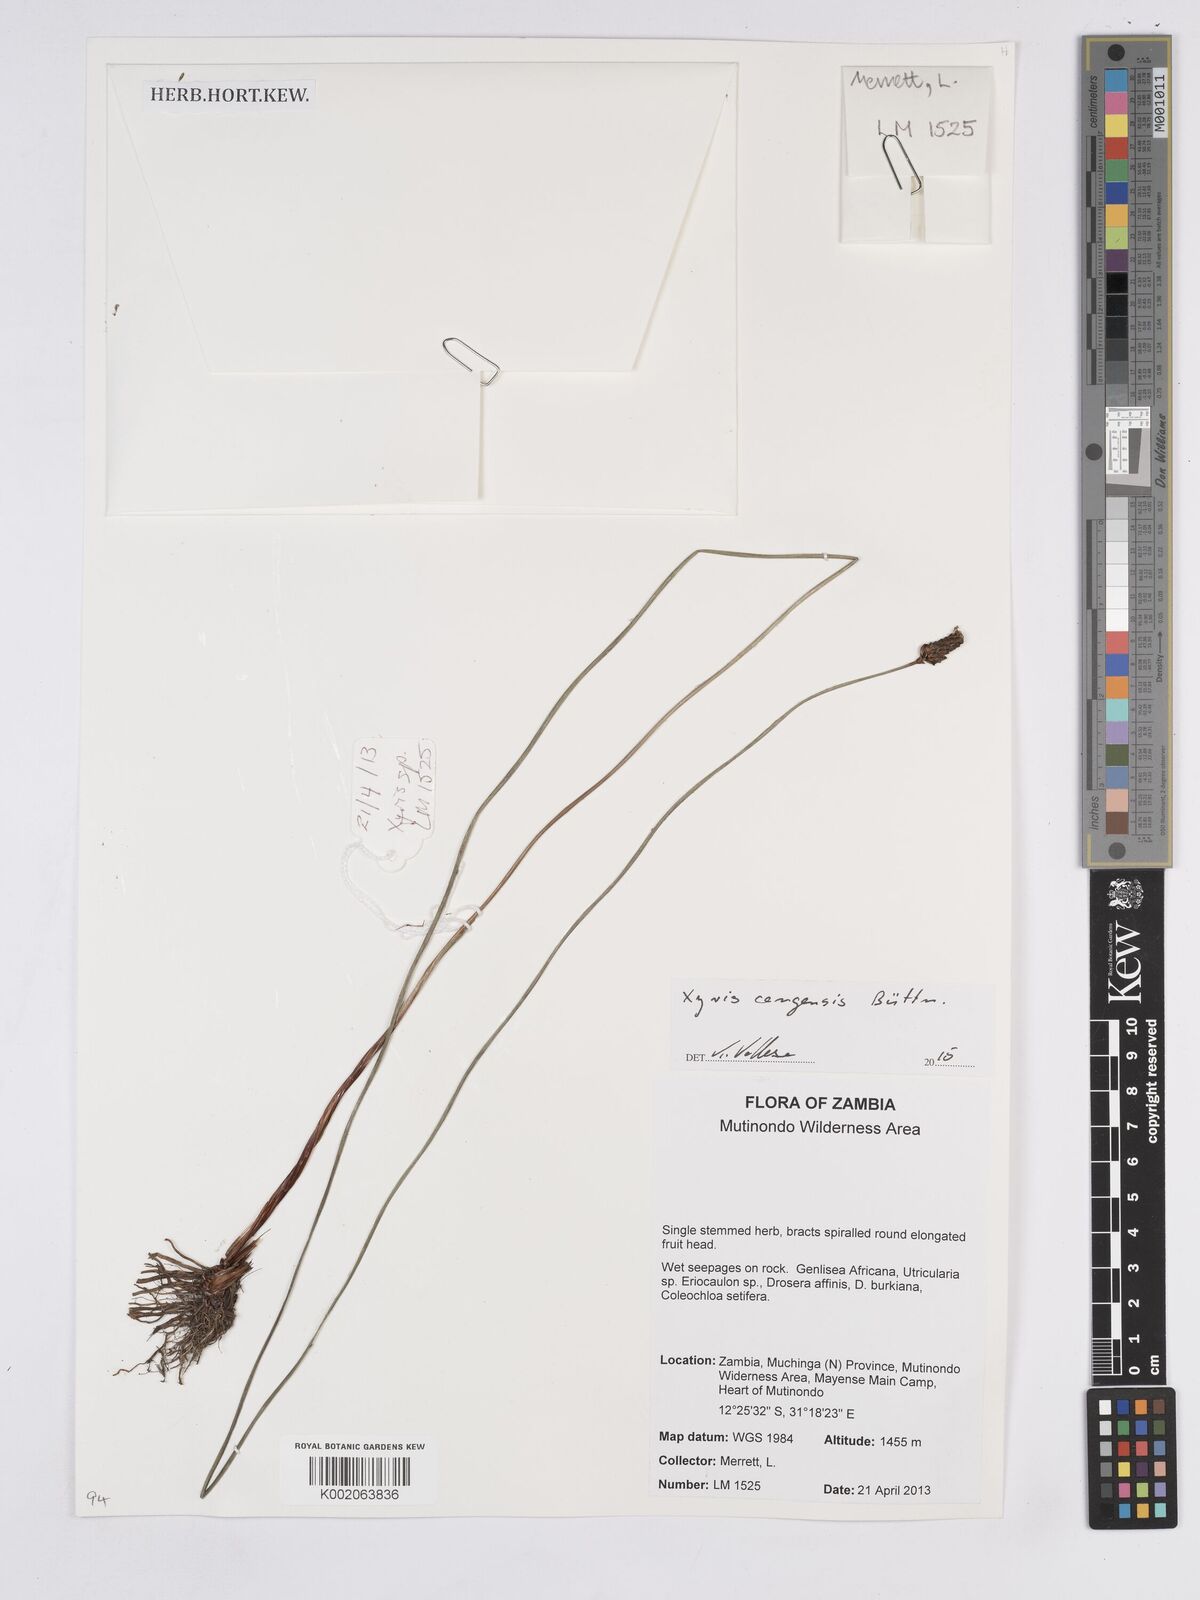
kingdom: Plantae
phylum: Tracheophyta
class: Liliopsida
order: Poales
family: Xyridaceae
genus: Xyris
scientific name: Xyris congensis
